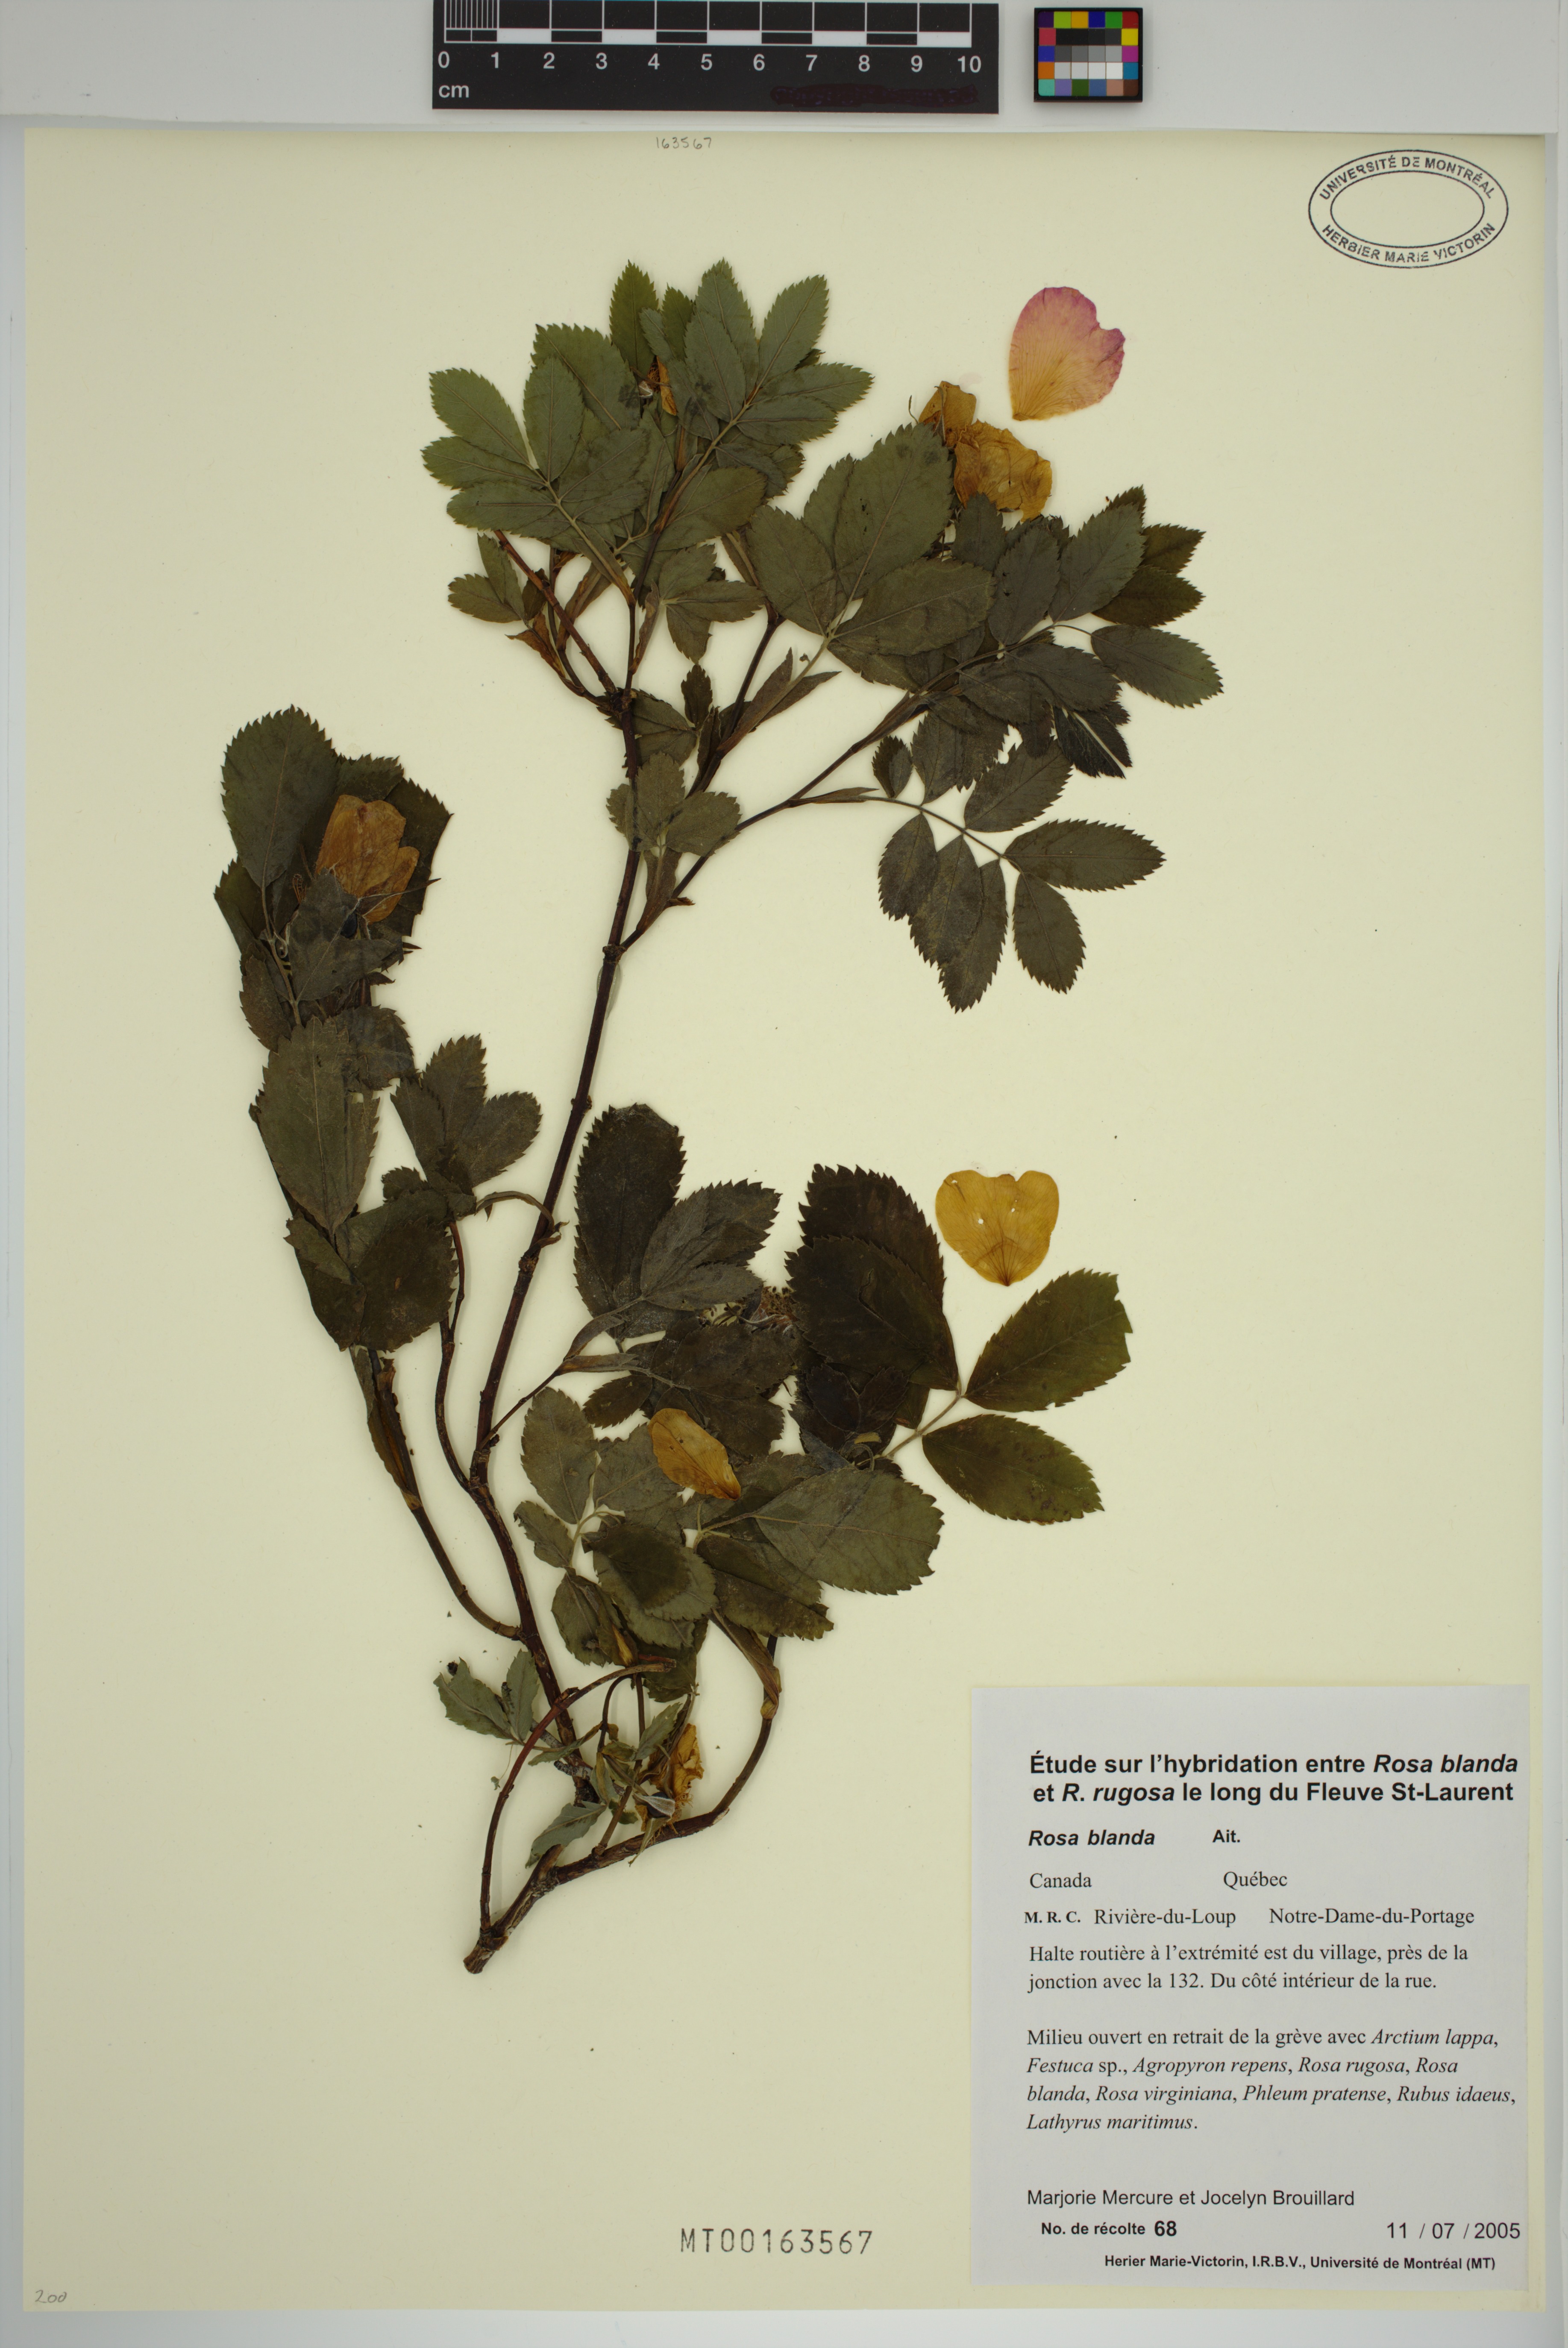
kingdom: Plantae
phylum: Tracheophyta
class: Magnoliopsida
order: Rosales
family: Rosaceae
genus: Rosa
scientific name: Rosa blanda
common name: Smooth rose
